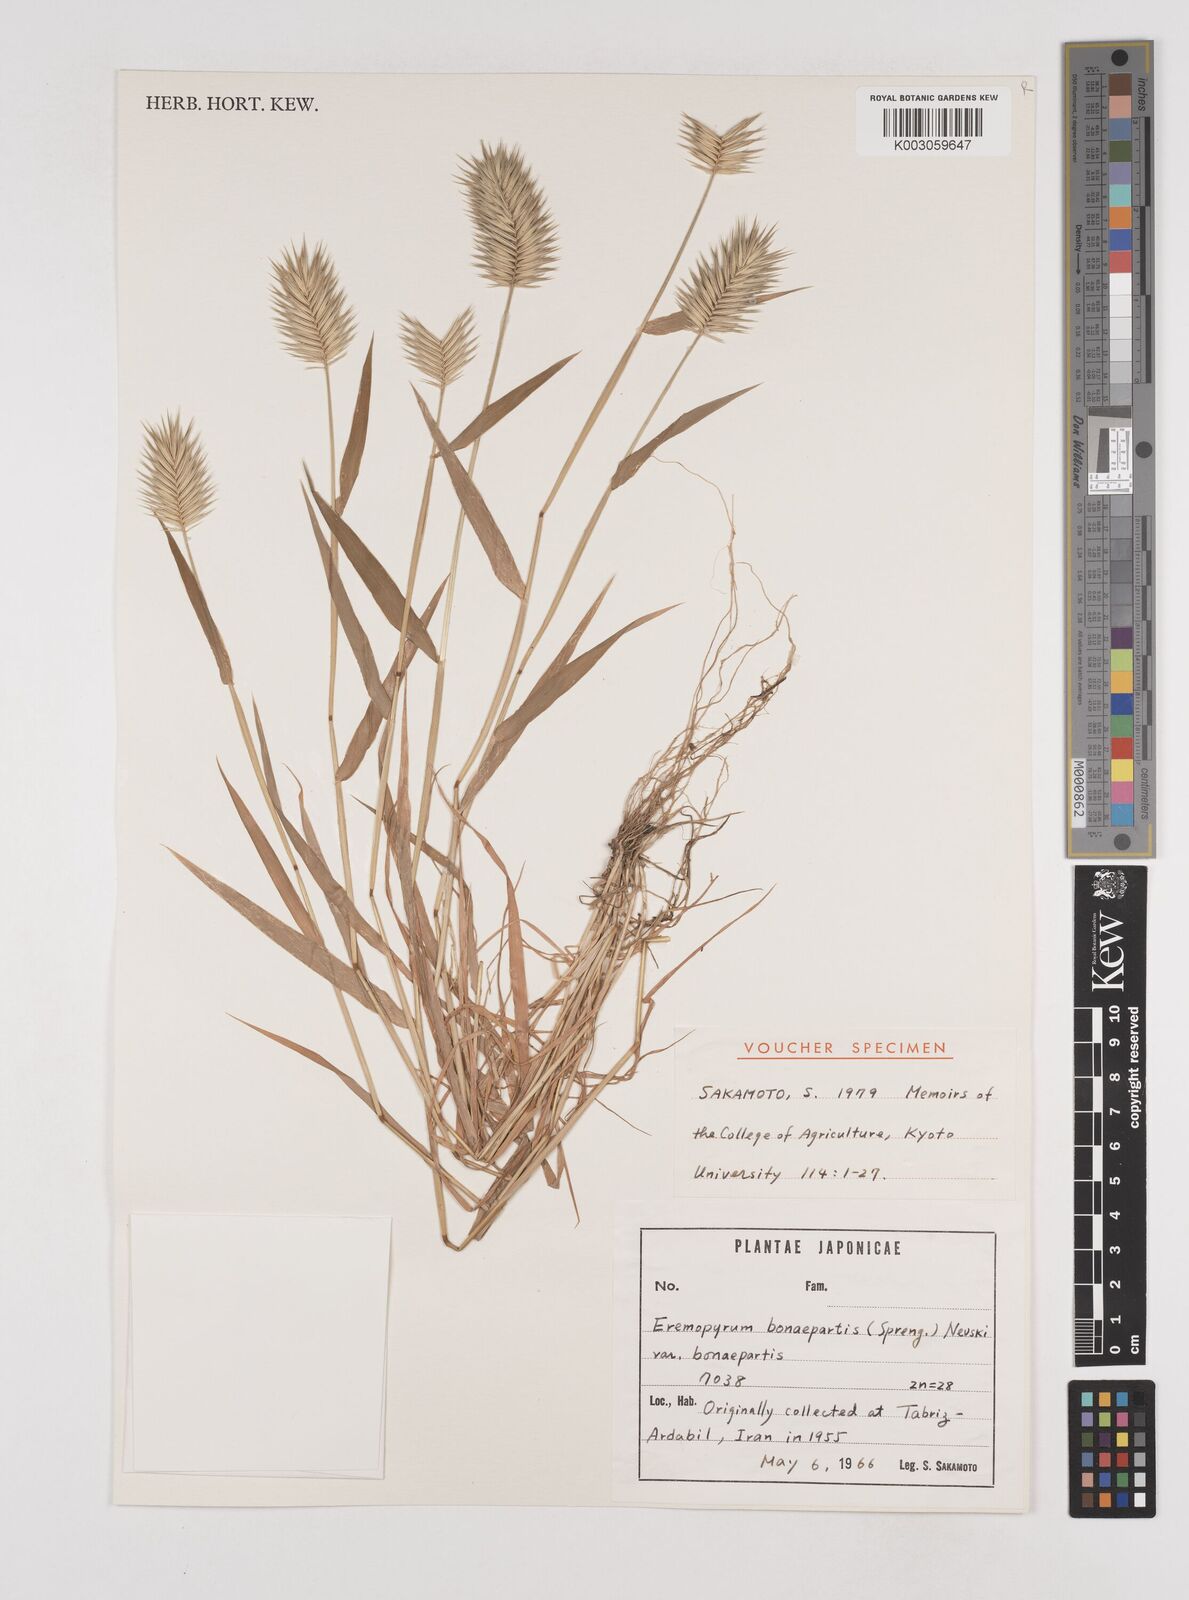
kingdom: Plantae
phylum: Tracheophyta
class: Liliopsida
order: Poales
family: Poaceae
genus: Eremopyrum
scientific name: Eremopyrum bonaepartis
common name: Tapertip false wheatgrass
